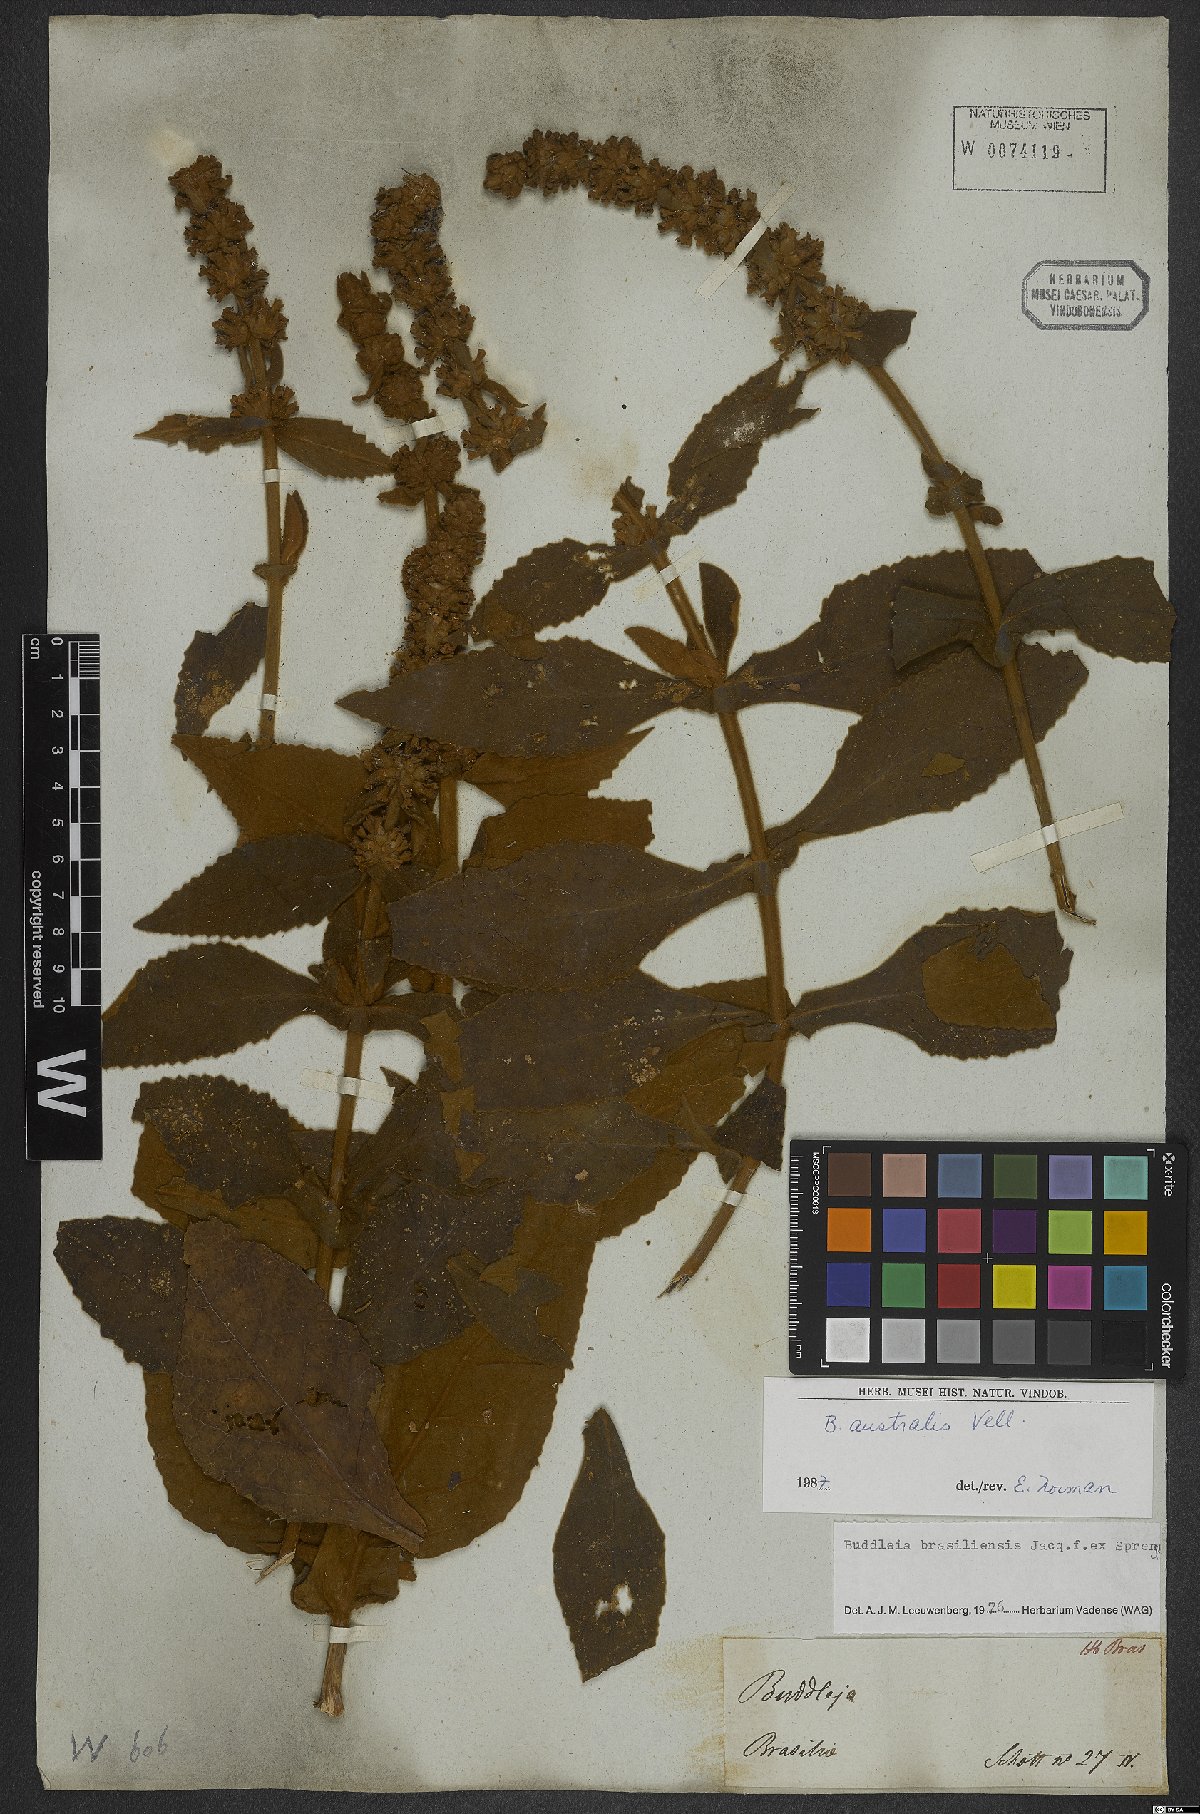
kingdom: Plantae
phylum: Tracheophyta
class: Magnoliopsida
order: Lamiales
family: Scrophulariaceae
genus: Buddleja
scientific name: Buddleja stachyoides
